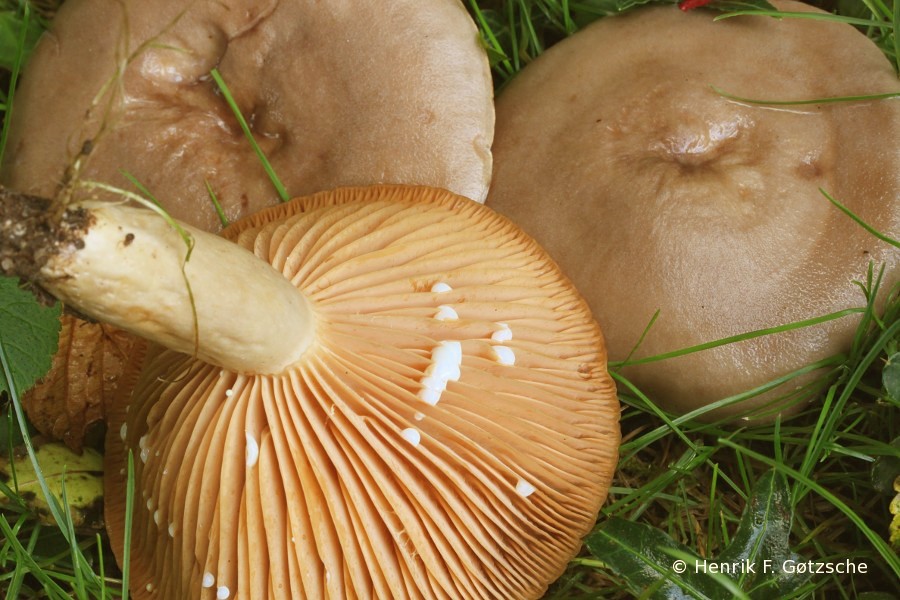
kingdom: Fungi
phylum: Basidiomycota
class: Agaricomycetes
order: Russulales
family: Russulaceae
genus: Lactarius
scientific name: Lactarius pyrogalus
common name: hassel-mælkehat
